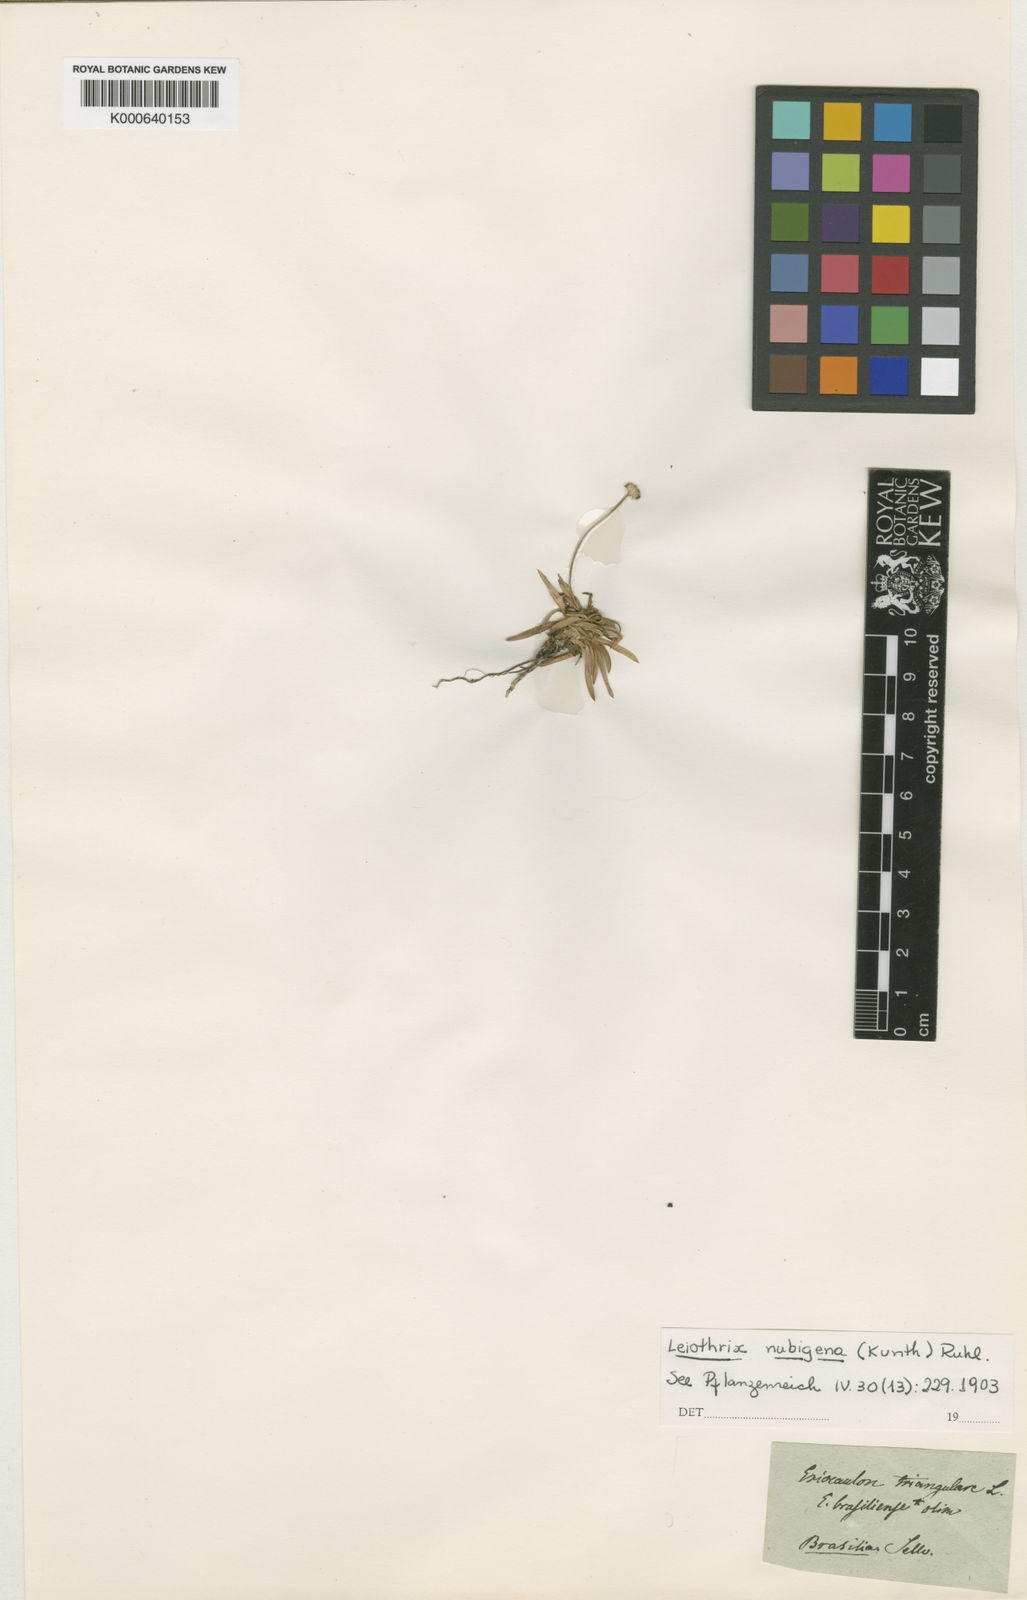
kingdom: Plantae
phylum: Tracheophyta
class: Liliopsida
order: Poales
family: Eriocaulaceae
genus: Leiothrix
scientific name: Leiothrix crassifolia
